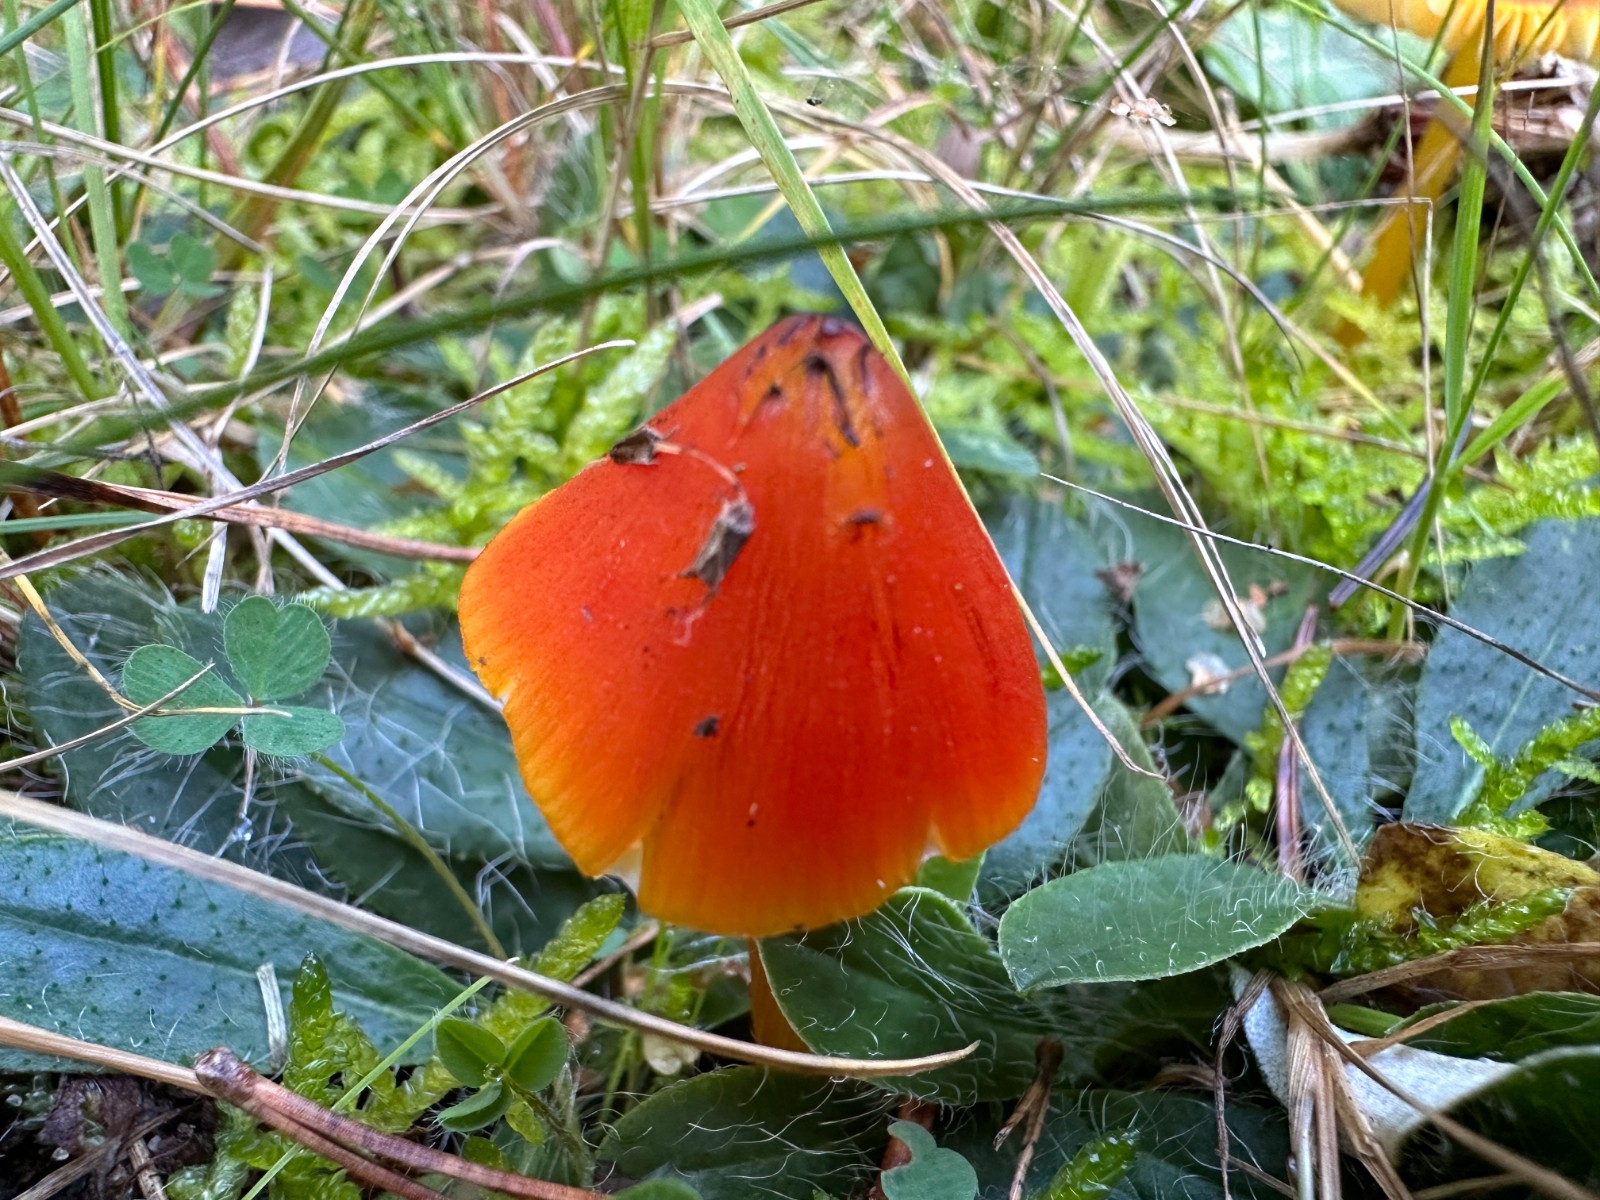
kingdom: Fungi
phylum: Basidiomycota
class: Agaricomycetes
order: Agaricales
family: Hygrophoraceae
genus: Hygrocybe
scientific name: Hygrocybe conica
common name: kegle-vokshat
